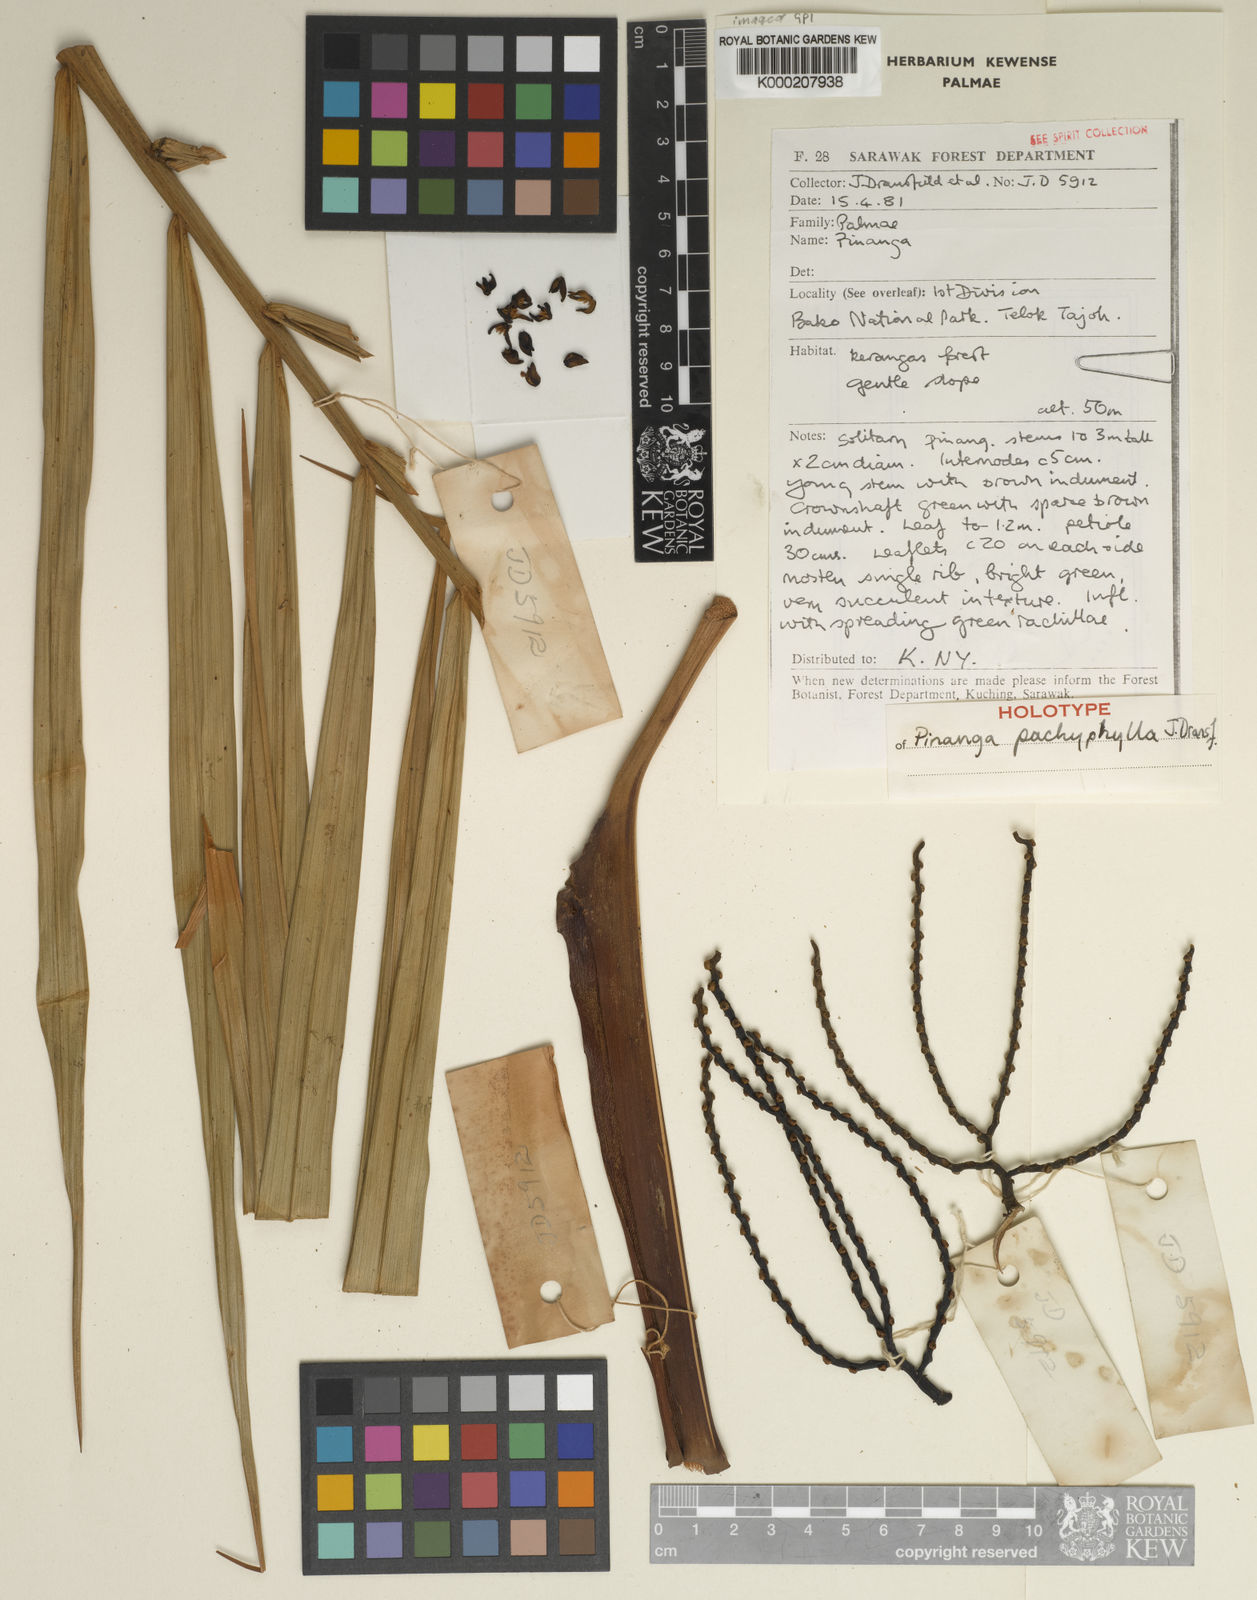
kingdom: Plantae
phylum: Tracheophyta
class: Liliopsida
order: Arecales
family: Arecaceae
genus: Pinanga
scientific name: Pinanga pachyphylla
